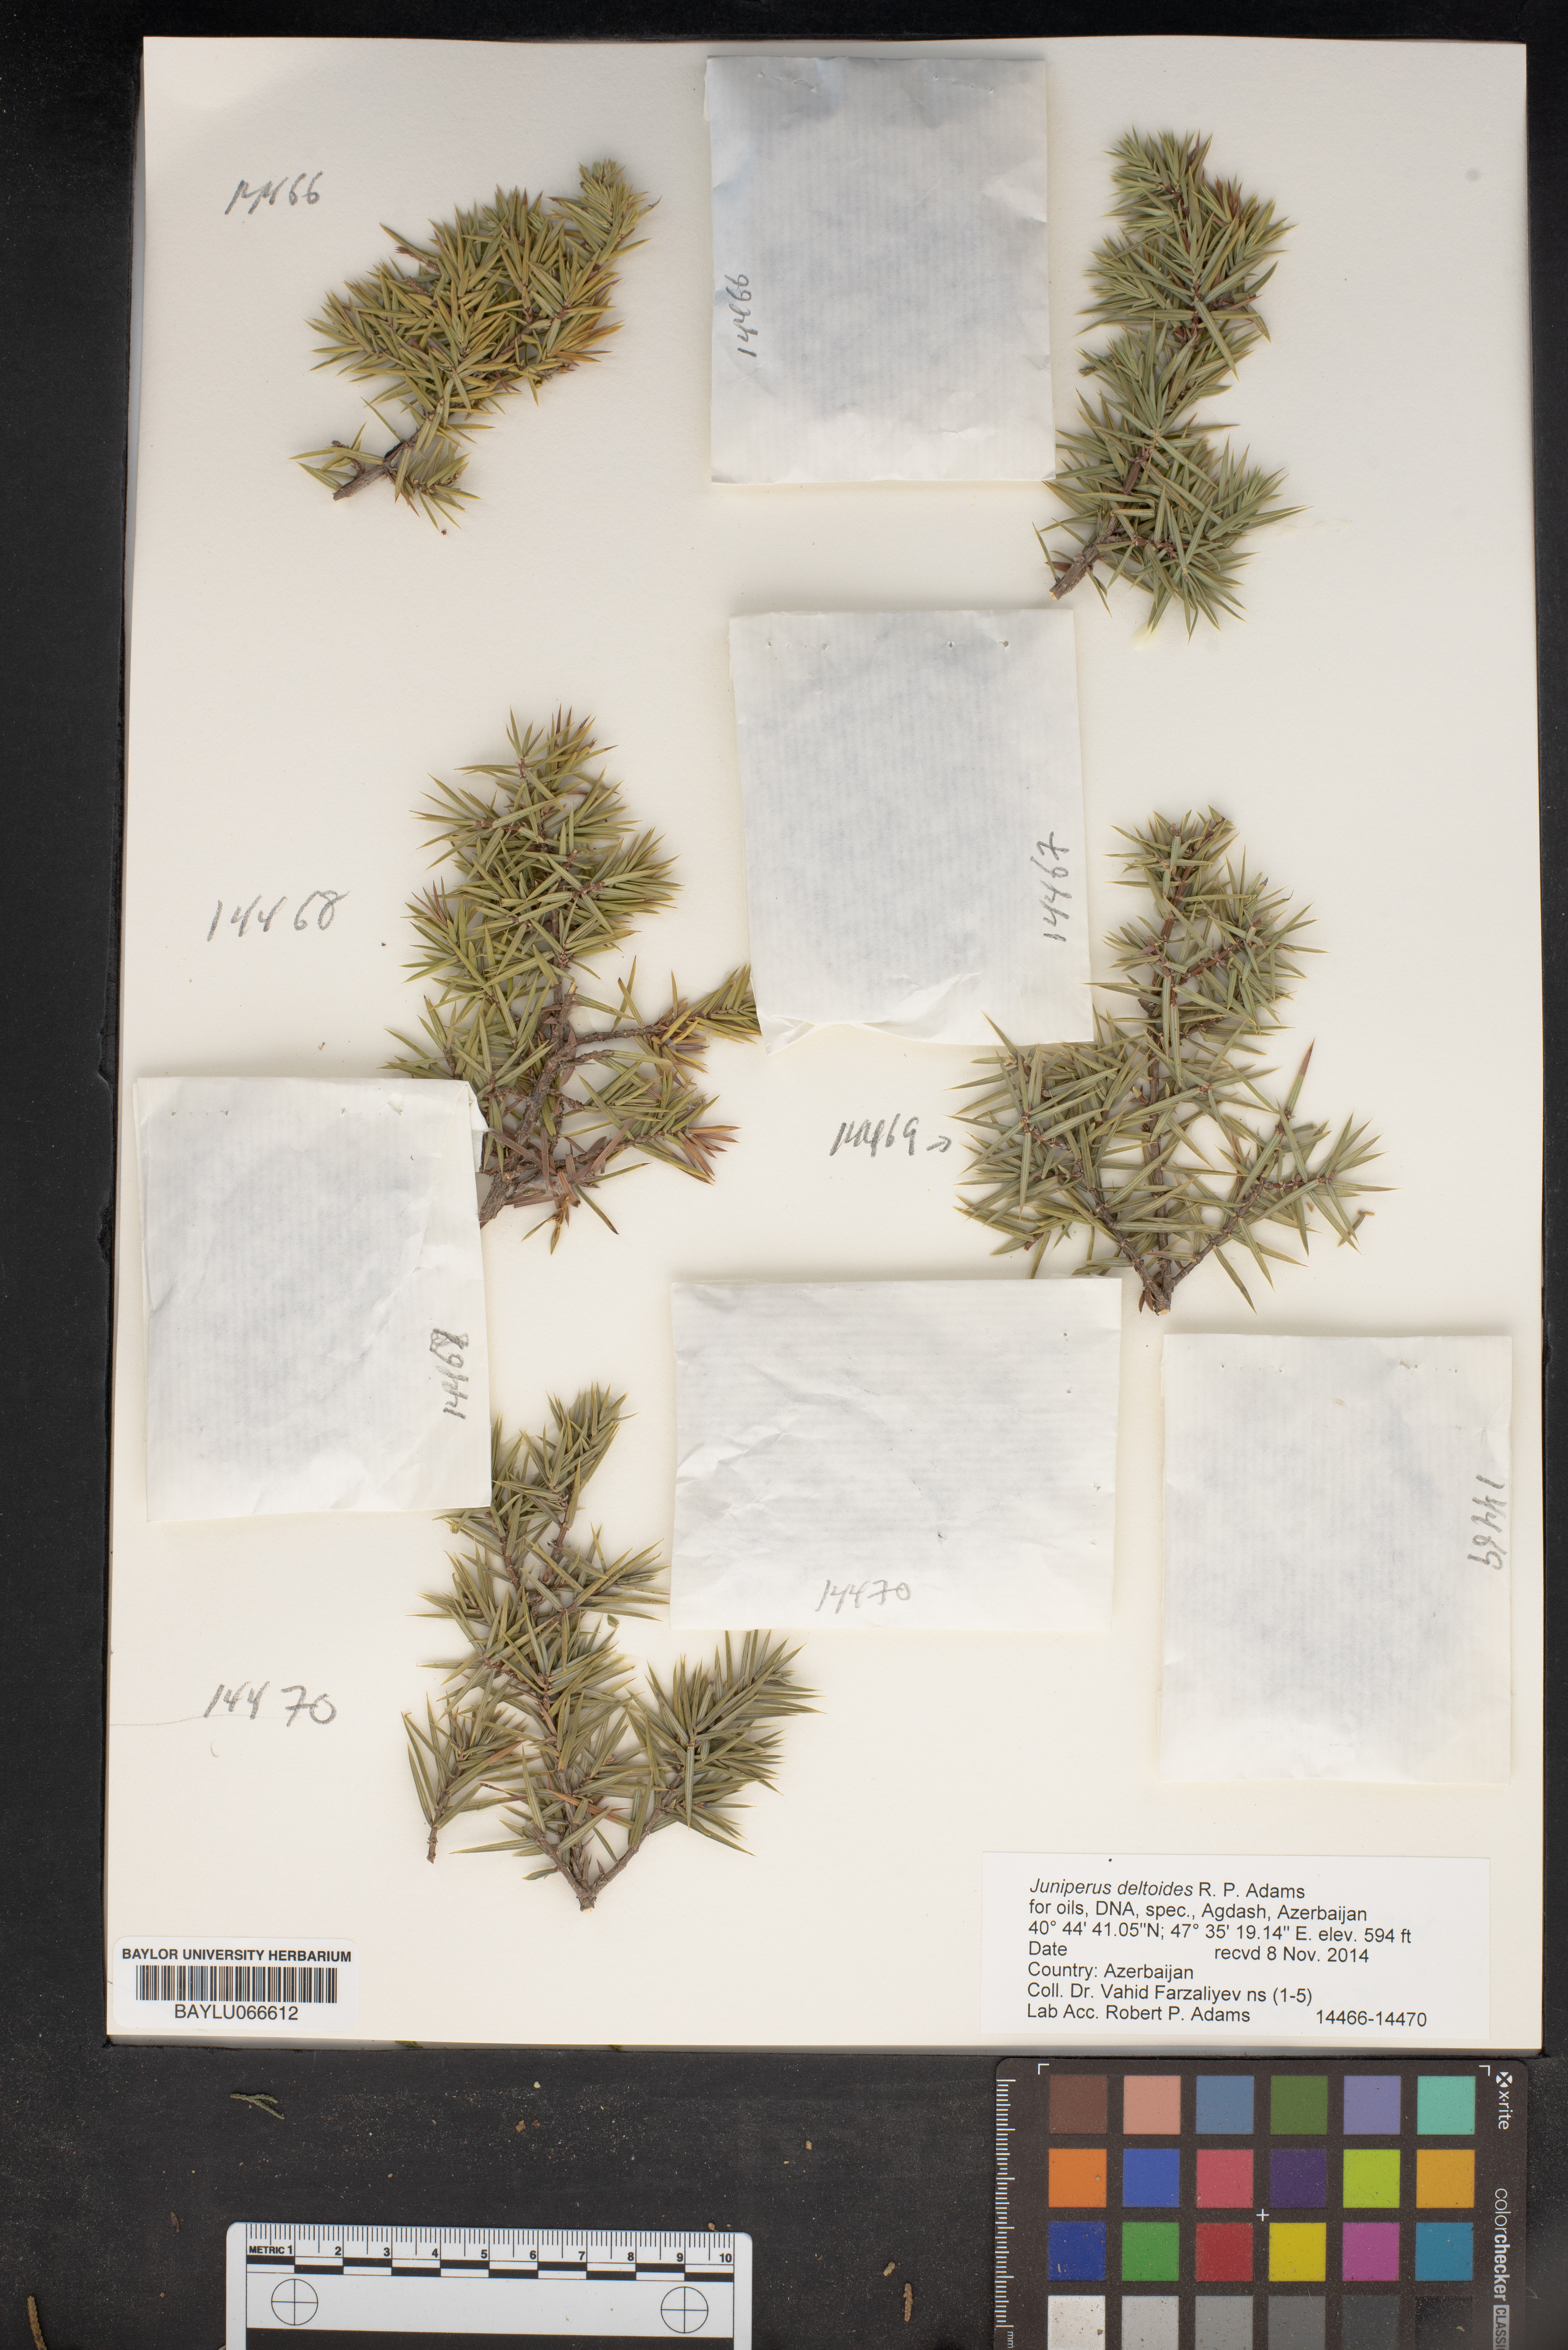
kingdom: Plantae
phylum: Tracheophyta
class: Pinopsida
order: Pinales
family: Cupressaceae
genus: Juniperus
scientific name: Juniperus oxycedrus
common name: Prickly juniper
